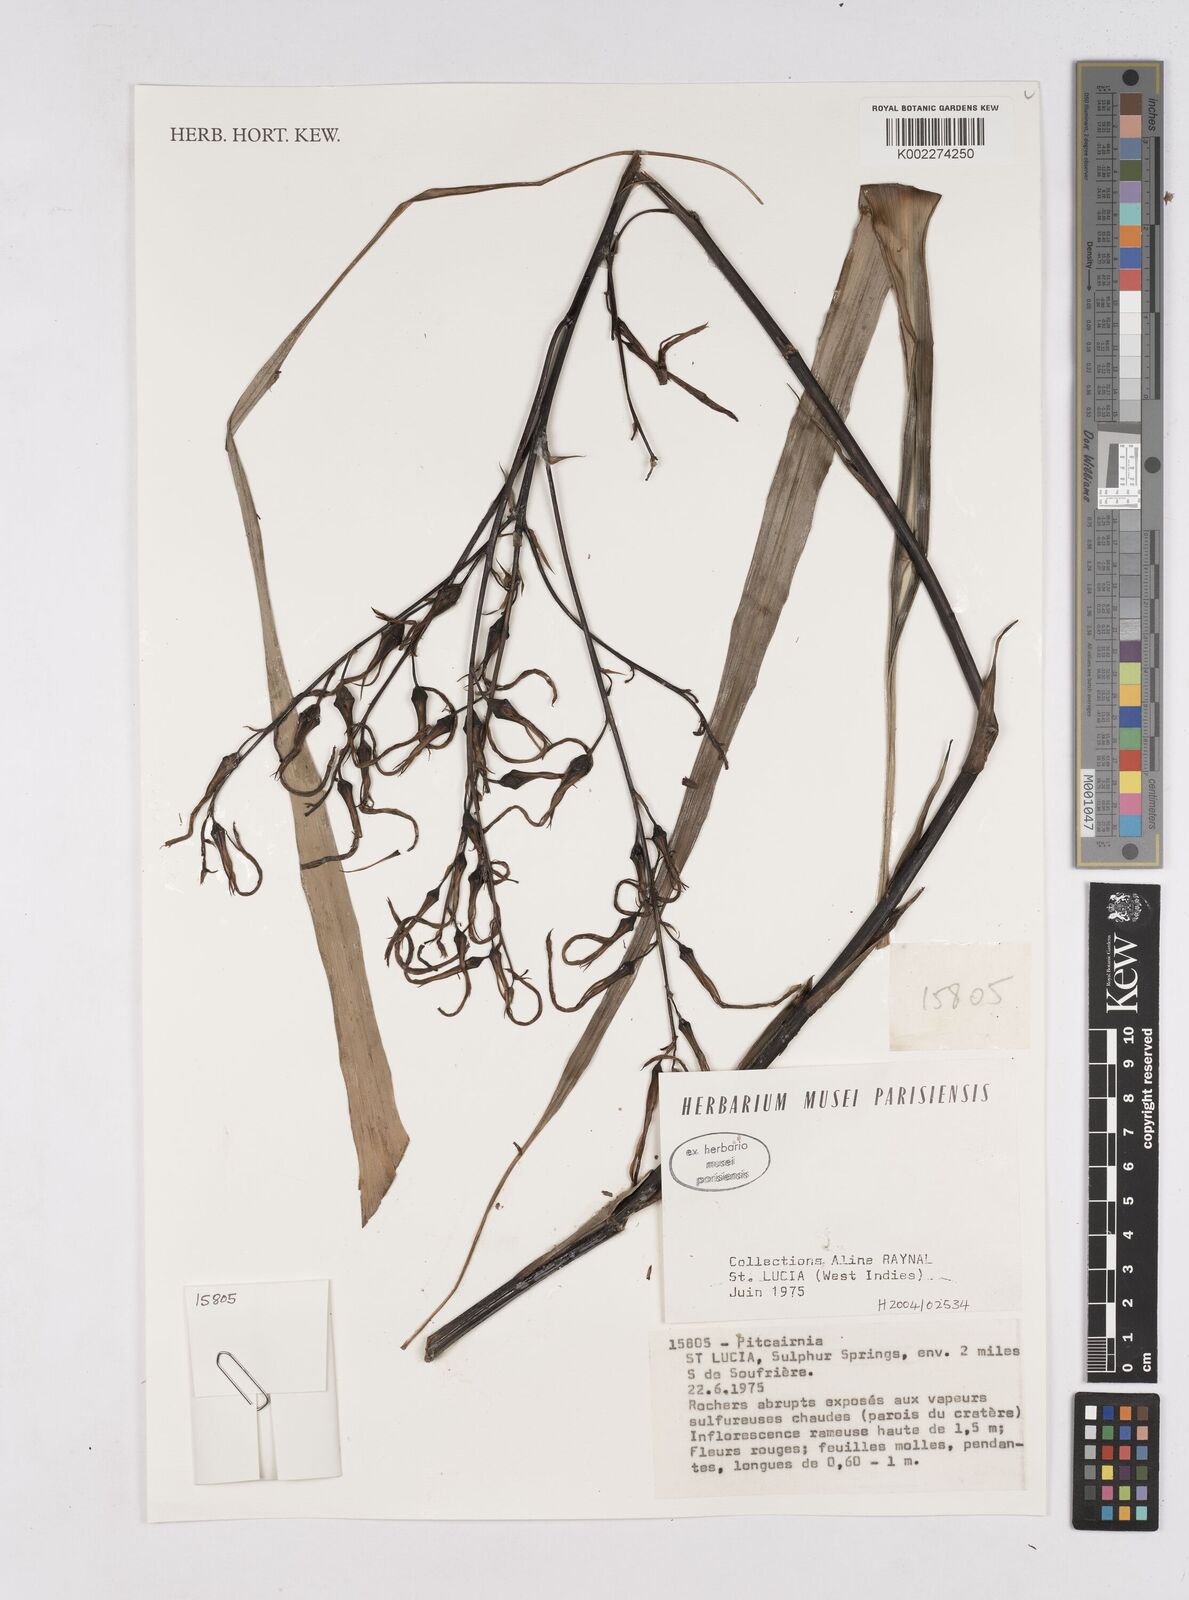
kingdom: Plantae
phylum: Tracheophyta
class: Liliopsida
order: Poales
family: Bromeliaceae
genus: Pitcairnia
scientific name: Pitcairnia
